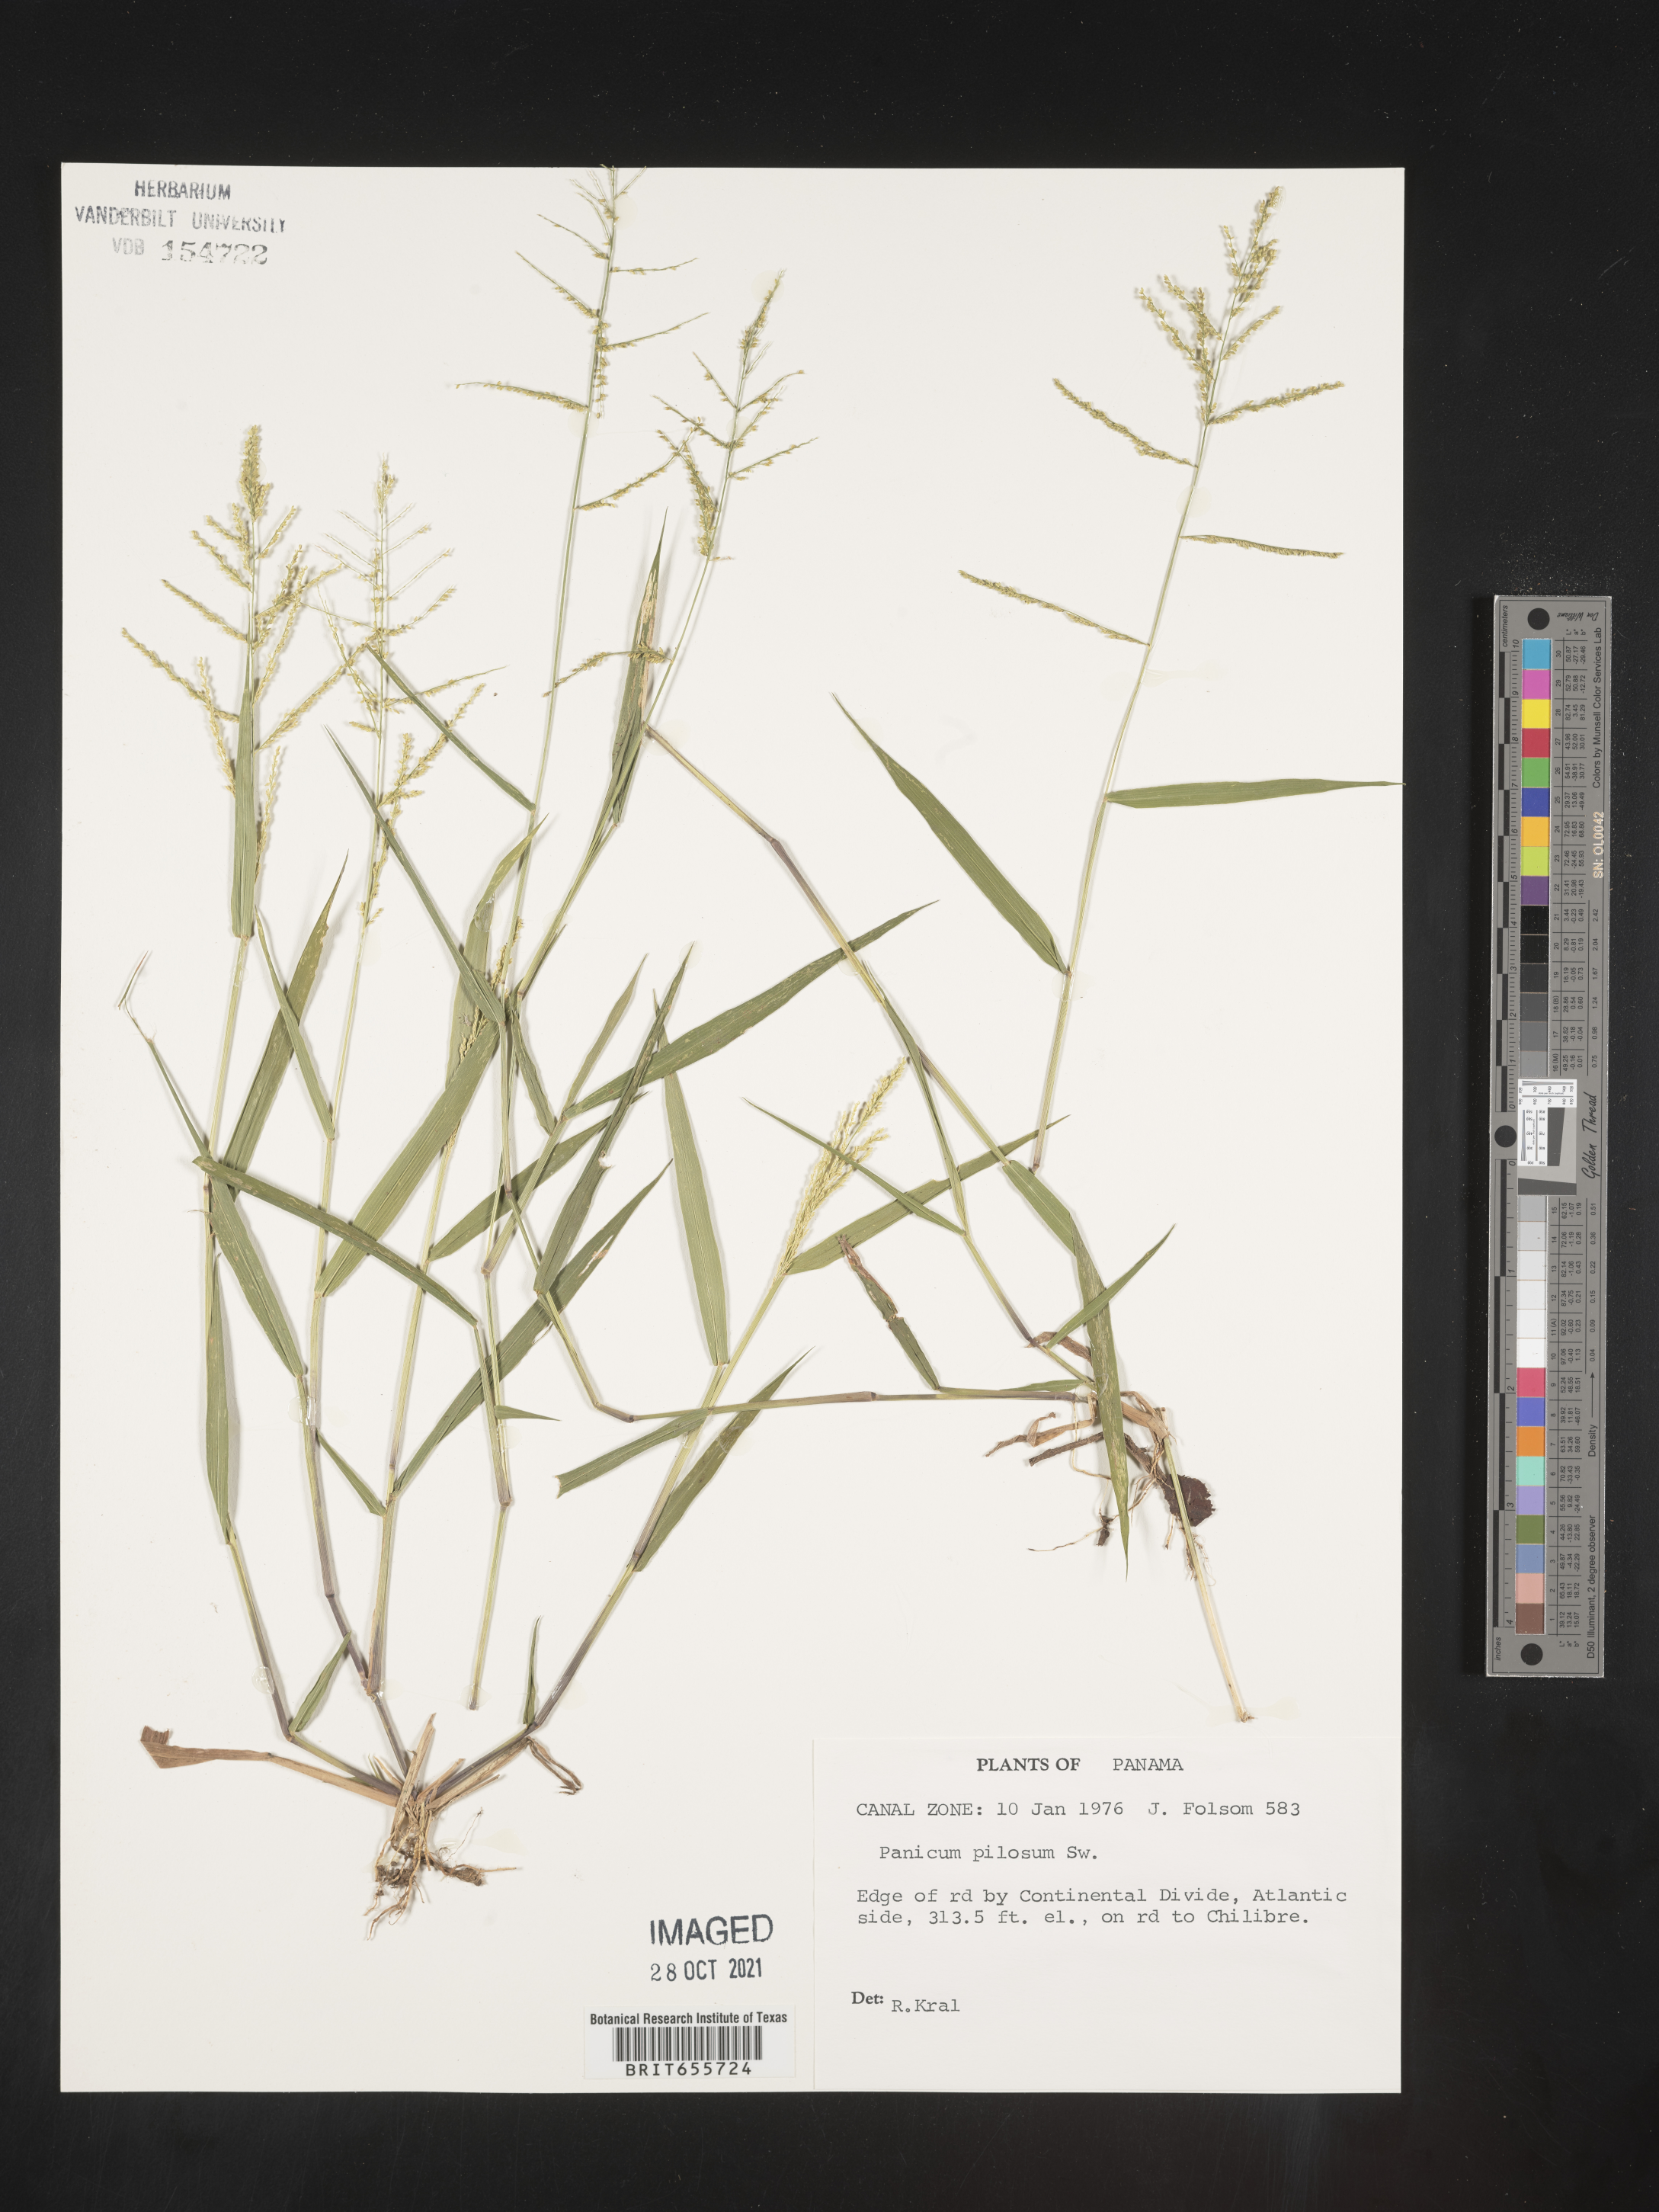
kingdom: Plantae
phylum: Tracheophyta
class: Liliopsida
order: Poales
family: Poaceae
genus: Panicum
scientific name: Panicum
